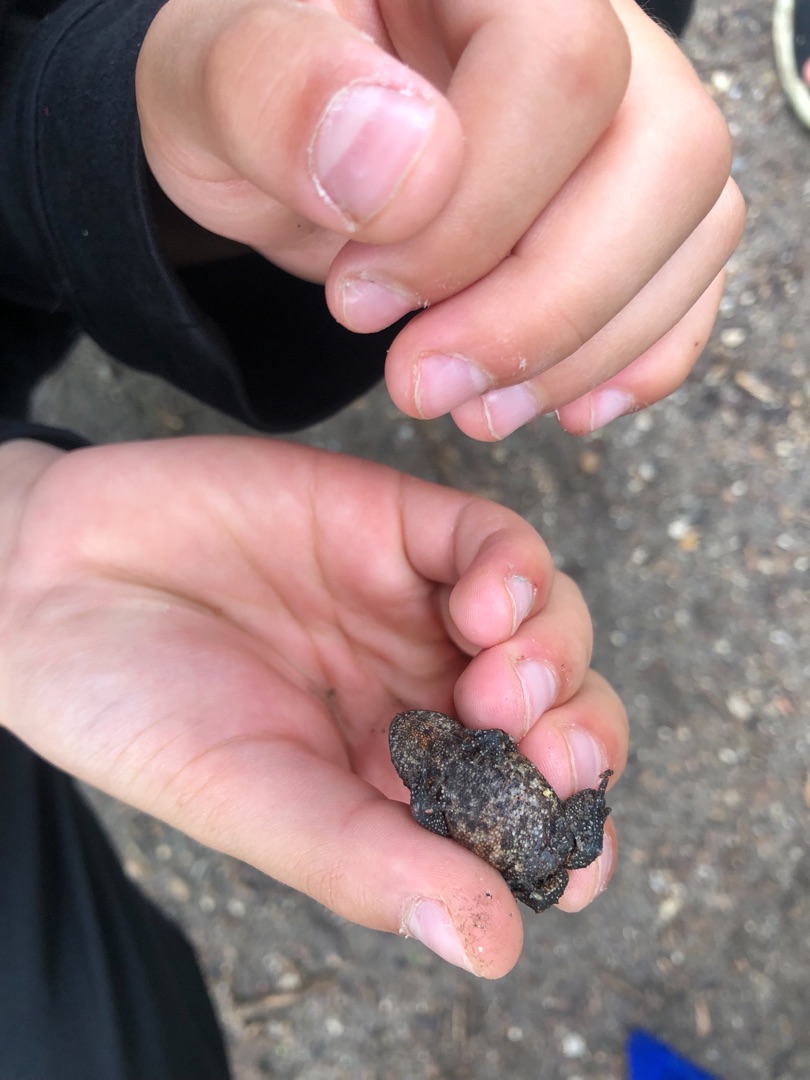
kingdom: Animalia
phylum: Chordata
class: Amphibia
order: Anura
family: Bufonidae
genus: Bufo
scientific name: Bufo bufo
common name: Skrubtudse
